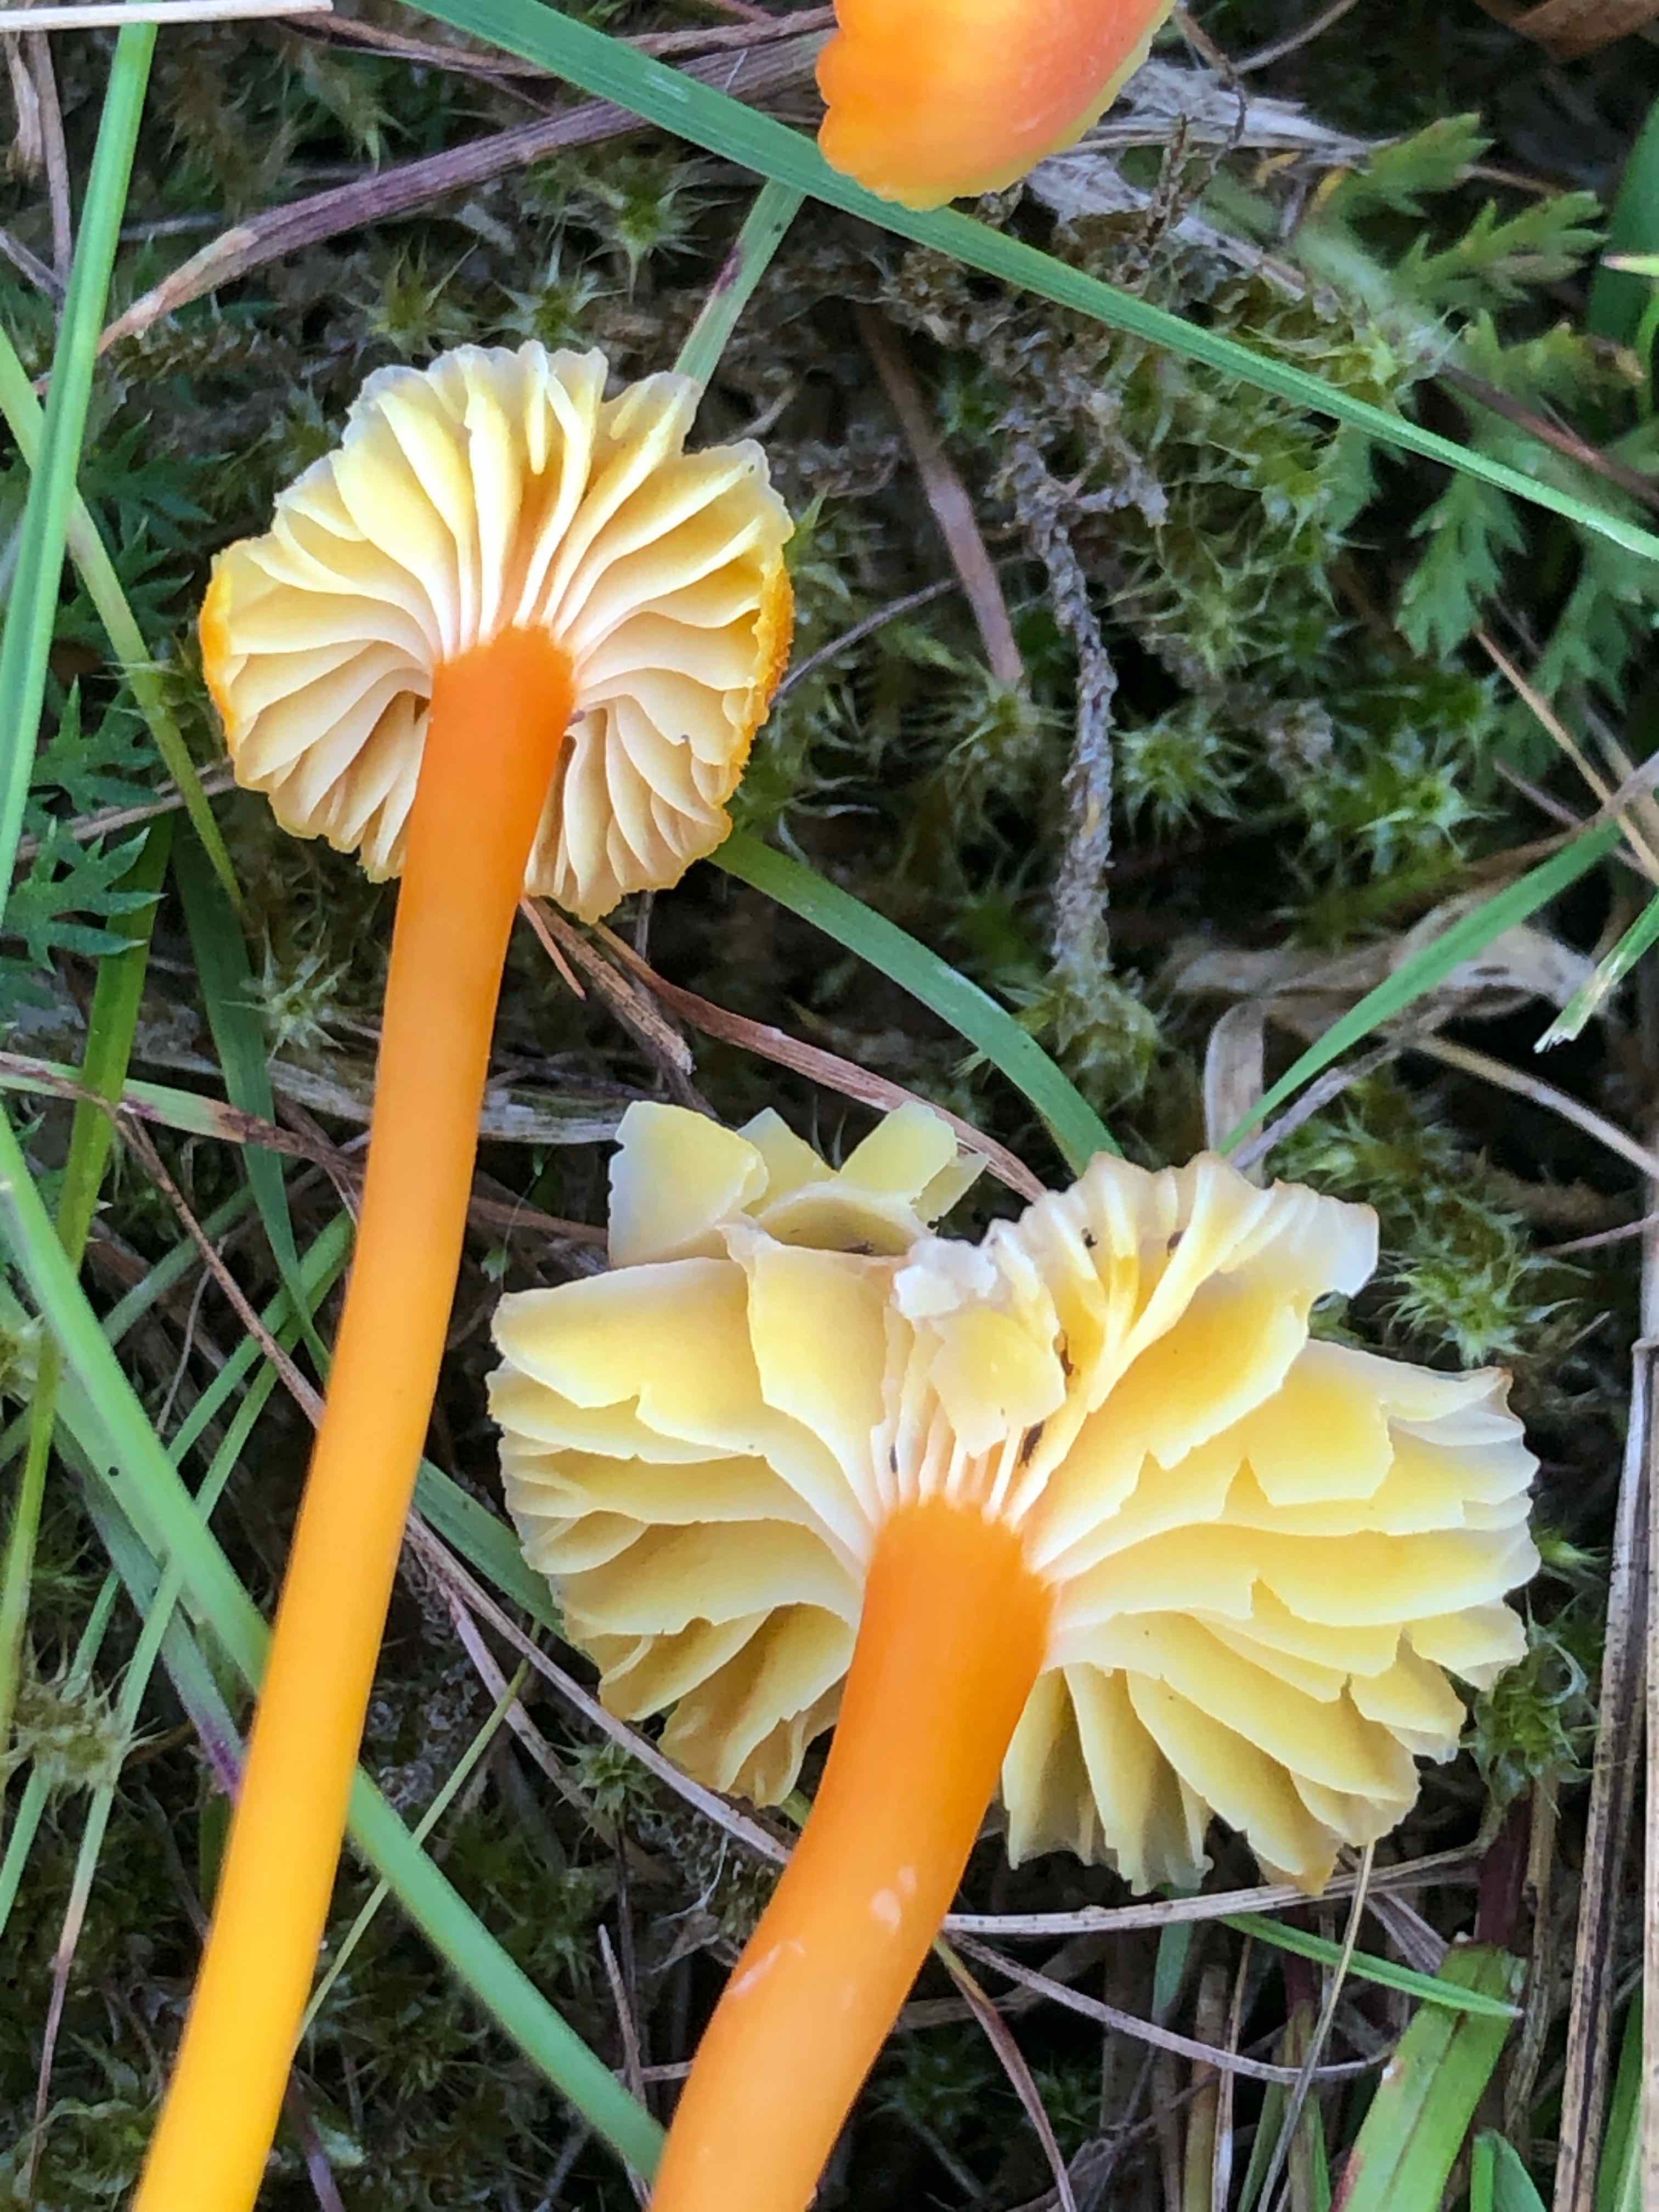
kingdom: Fungi
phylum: Basidiomycota
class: Agaricomycetes
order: Agaricales
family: Hygrophoraceae
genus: Hygrocybe
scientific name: Hygrocybe cantharellus
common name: kantarel-vokshat
